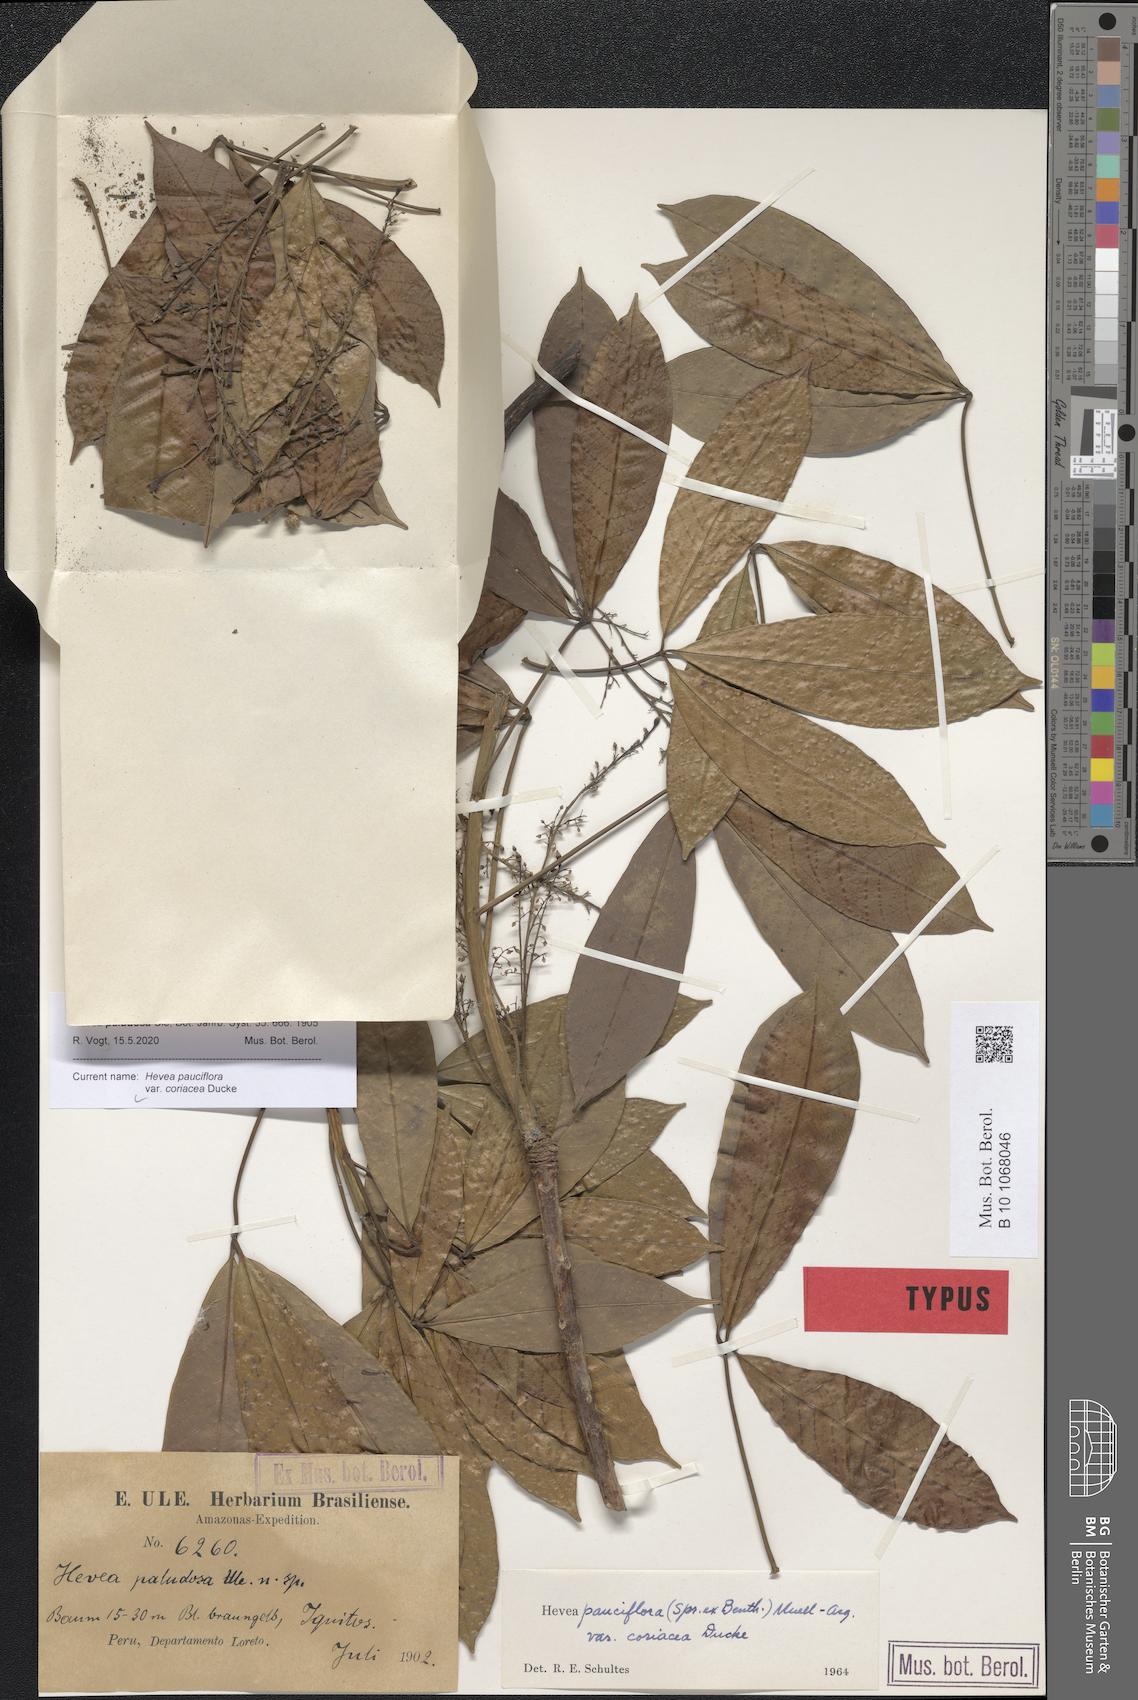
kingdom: Plantae
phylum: Tracheophyta
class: Magnoliopsida
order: Malpighiales
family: Euphorbiaceae
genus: Hevea
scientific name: Hevea pauciflora
